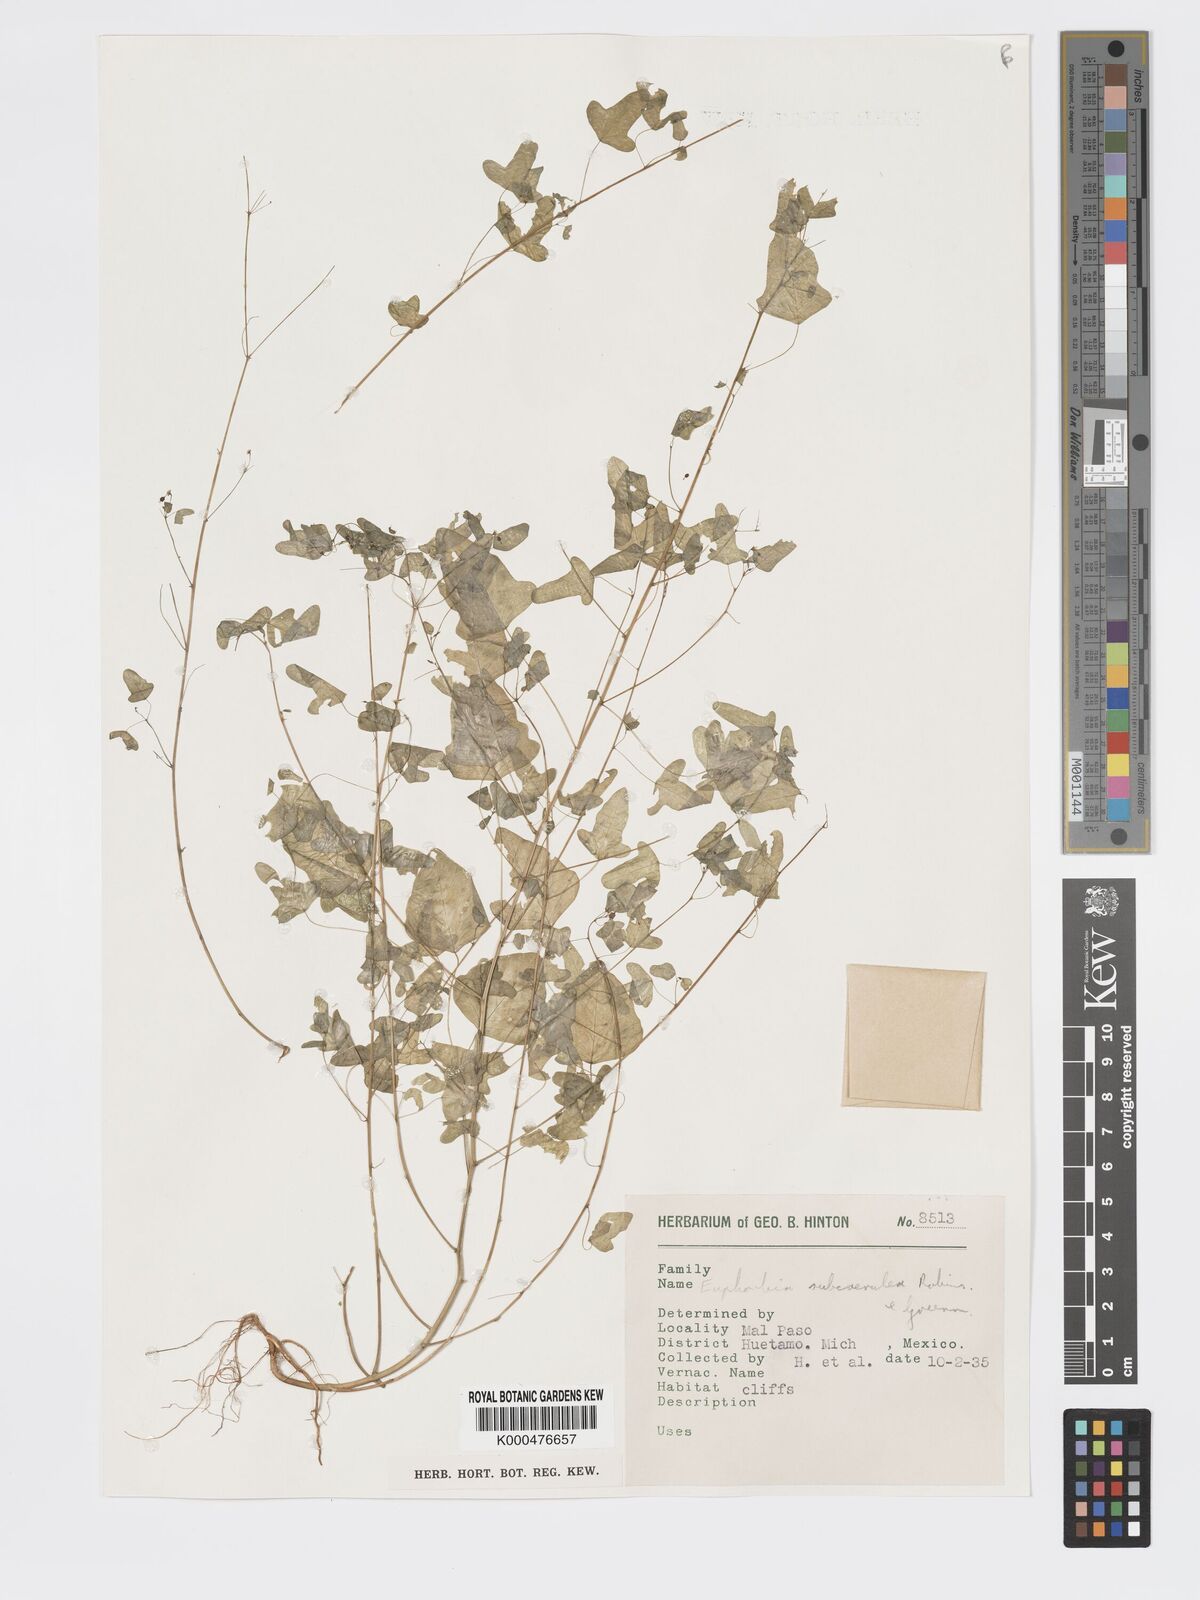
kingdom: Plantae
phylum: Tracheophyta
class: Magnoliopsida
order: Malpighiales
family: Euphorbiaceae
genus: Euphorbia
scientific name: Euphorbia fimbrilligera
